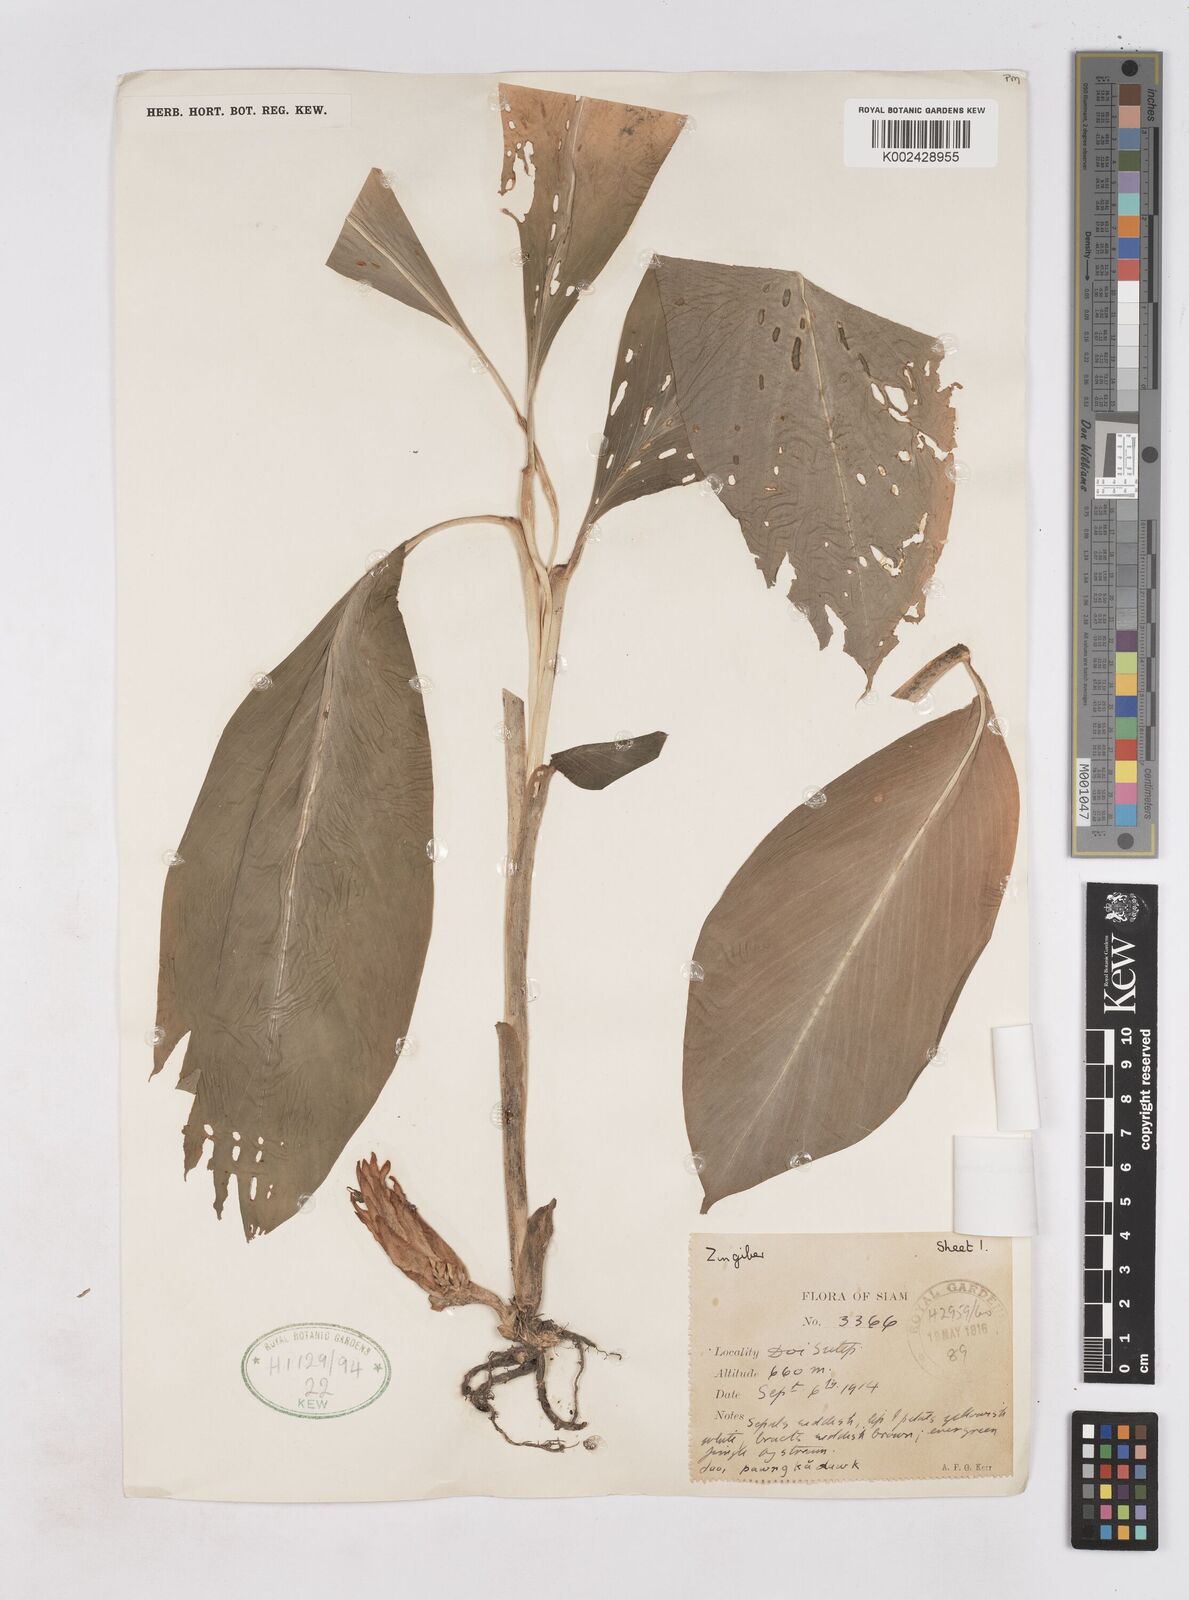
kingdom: Plantae
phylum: Tracheophyta
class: Liliopsida
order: Zingiberales
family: Zingiberaceae
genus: Zingiber
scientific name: Zingiber thorelii
